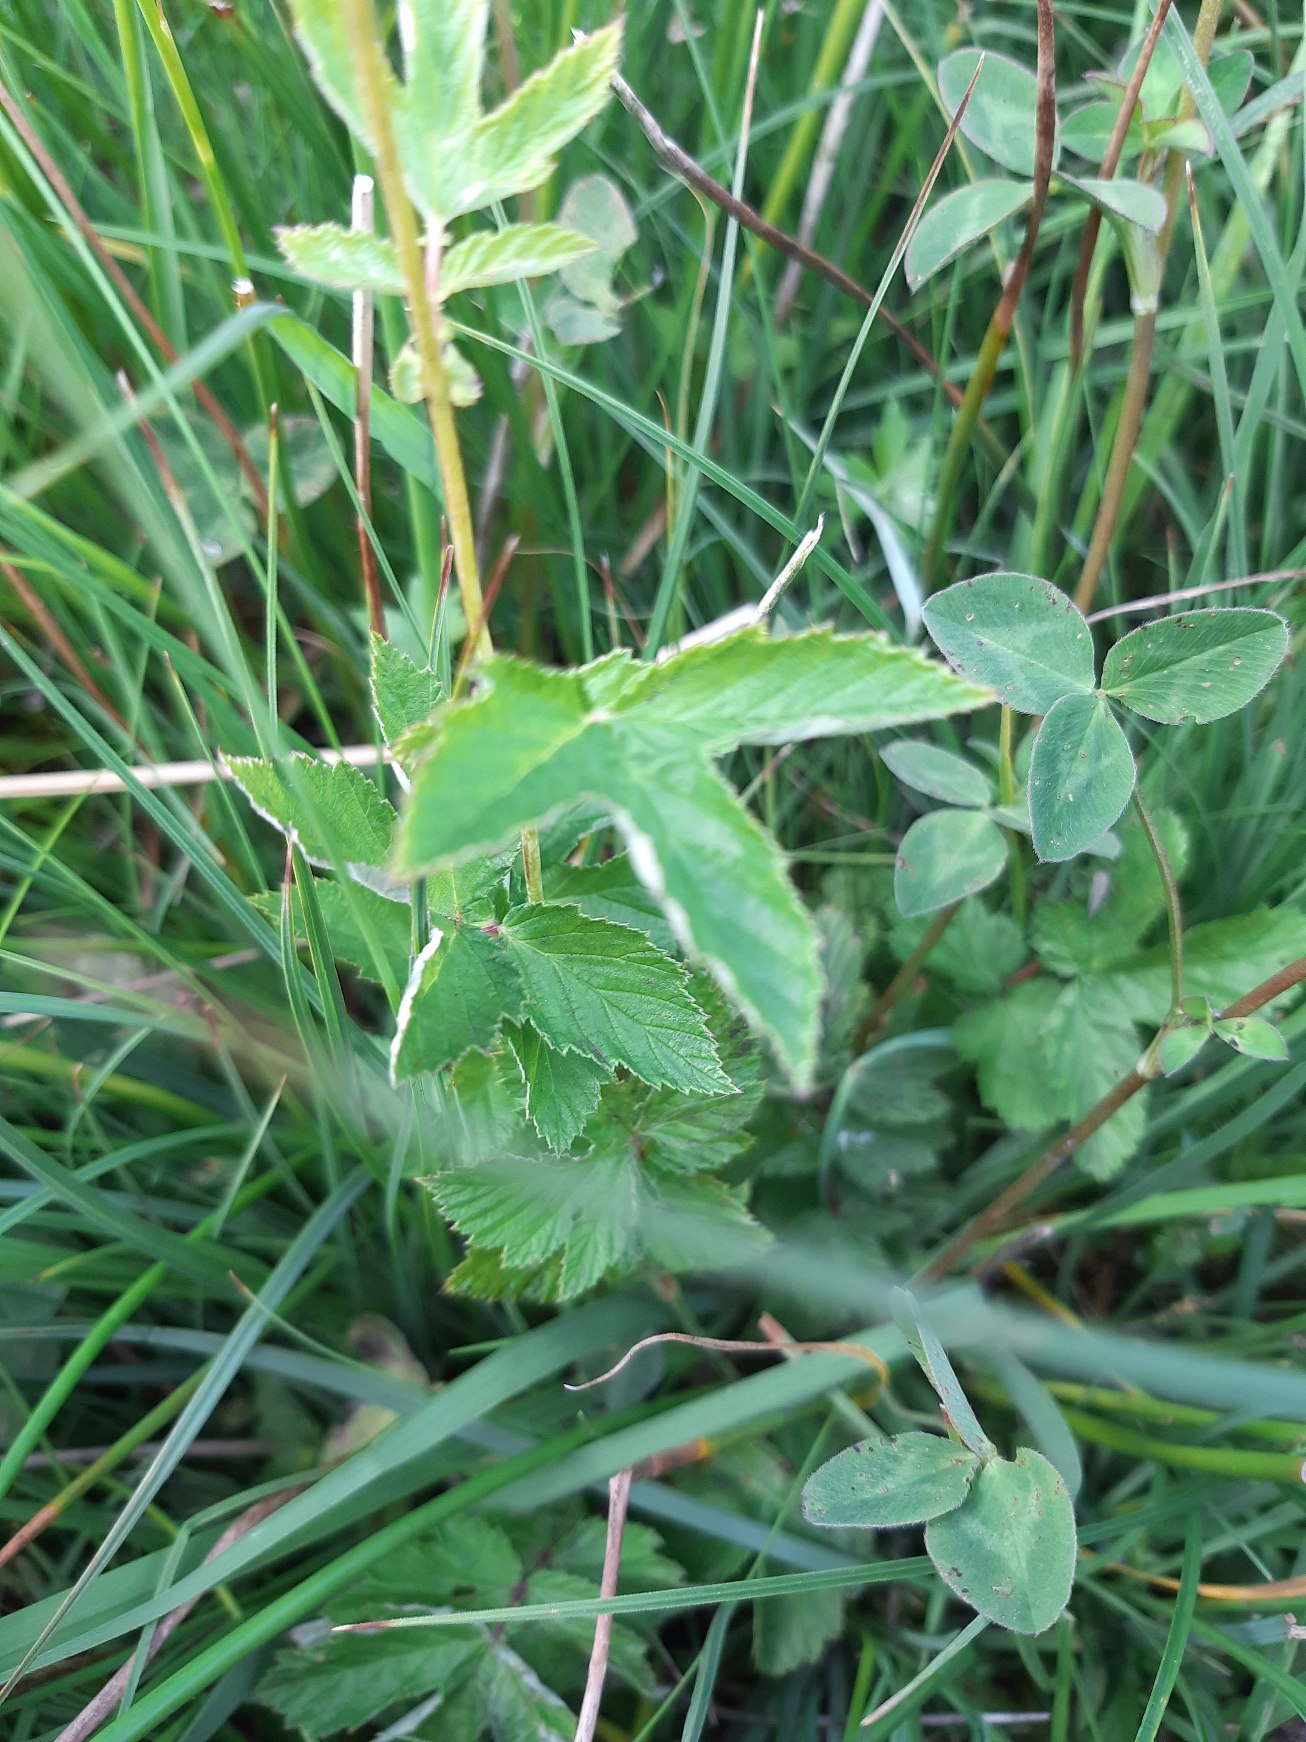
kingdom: Plantae
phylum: Tracheophyta
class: Magnoliopsida
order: Rosales
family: Rosaceae
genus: Filipendula
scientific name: Filipendula ulmaria
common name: Almindelig mjødurt
